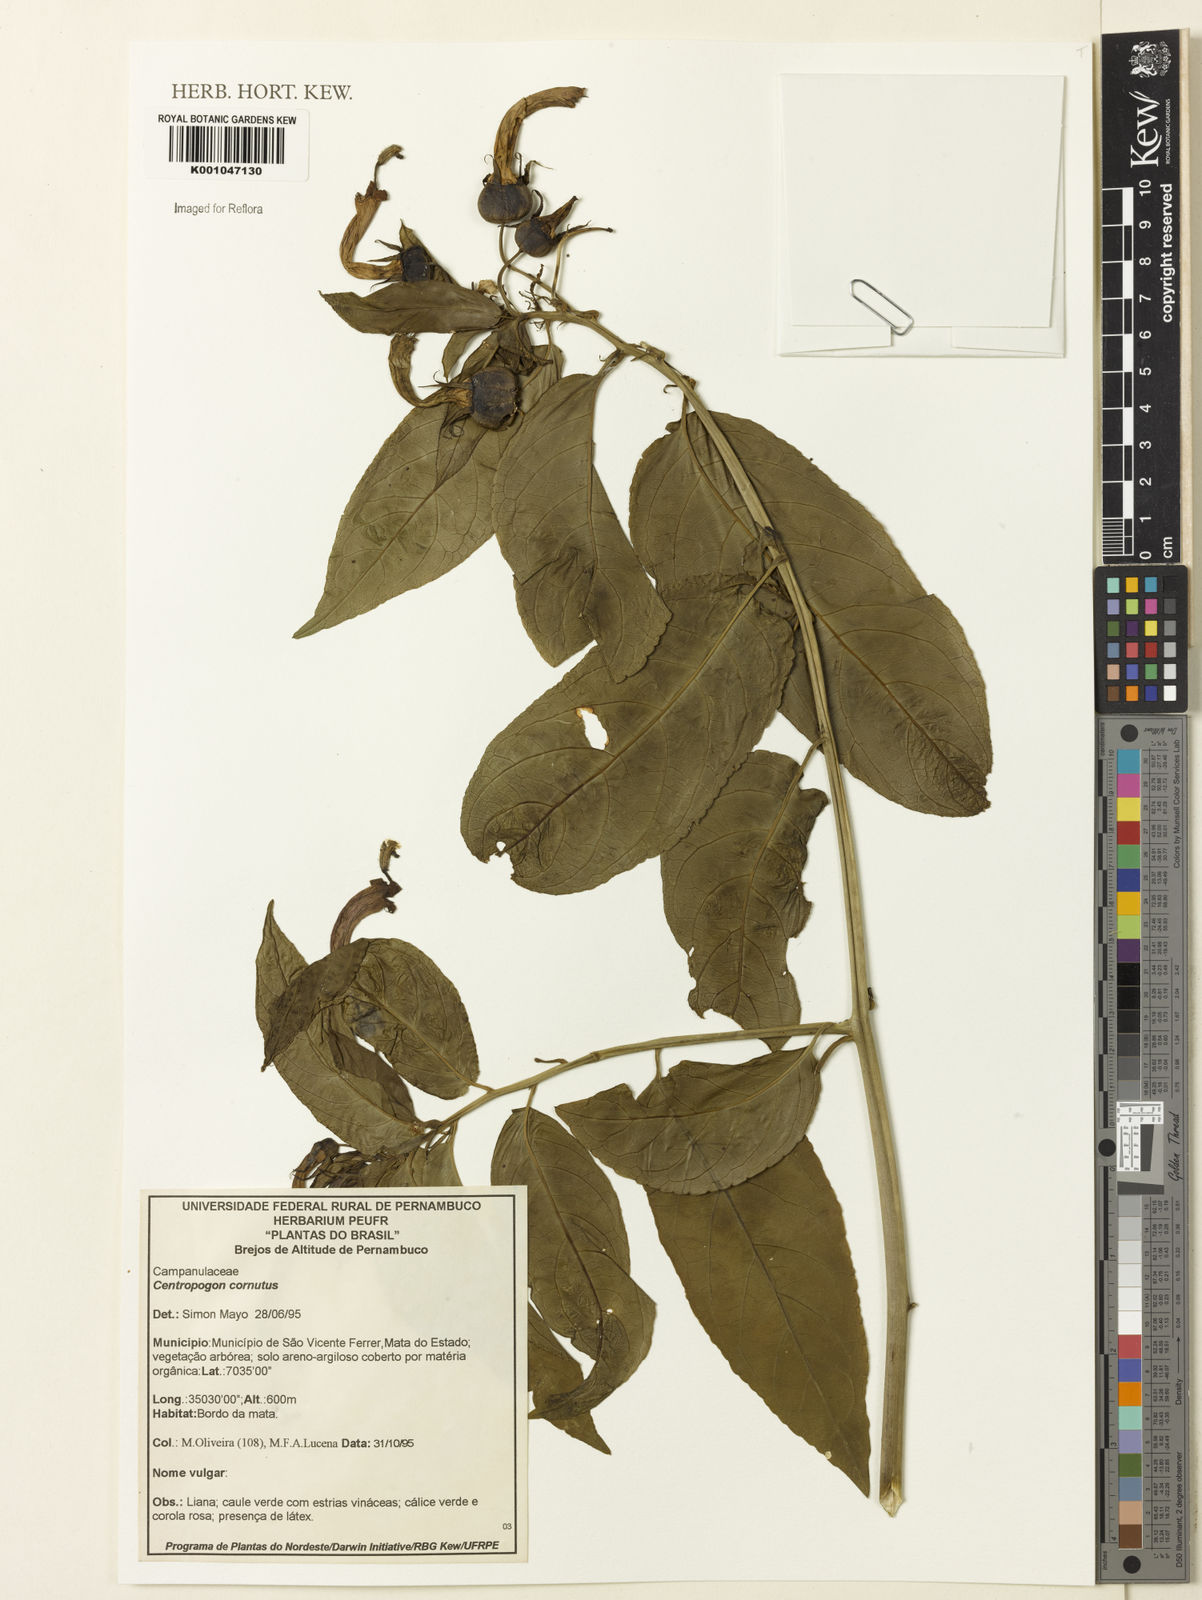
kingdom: Plantae
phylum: Tracheophyta
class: Magnoliopsida
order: Asterales
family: Campanulaceae
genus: Centropogon
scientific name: Centropogon cornutus
